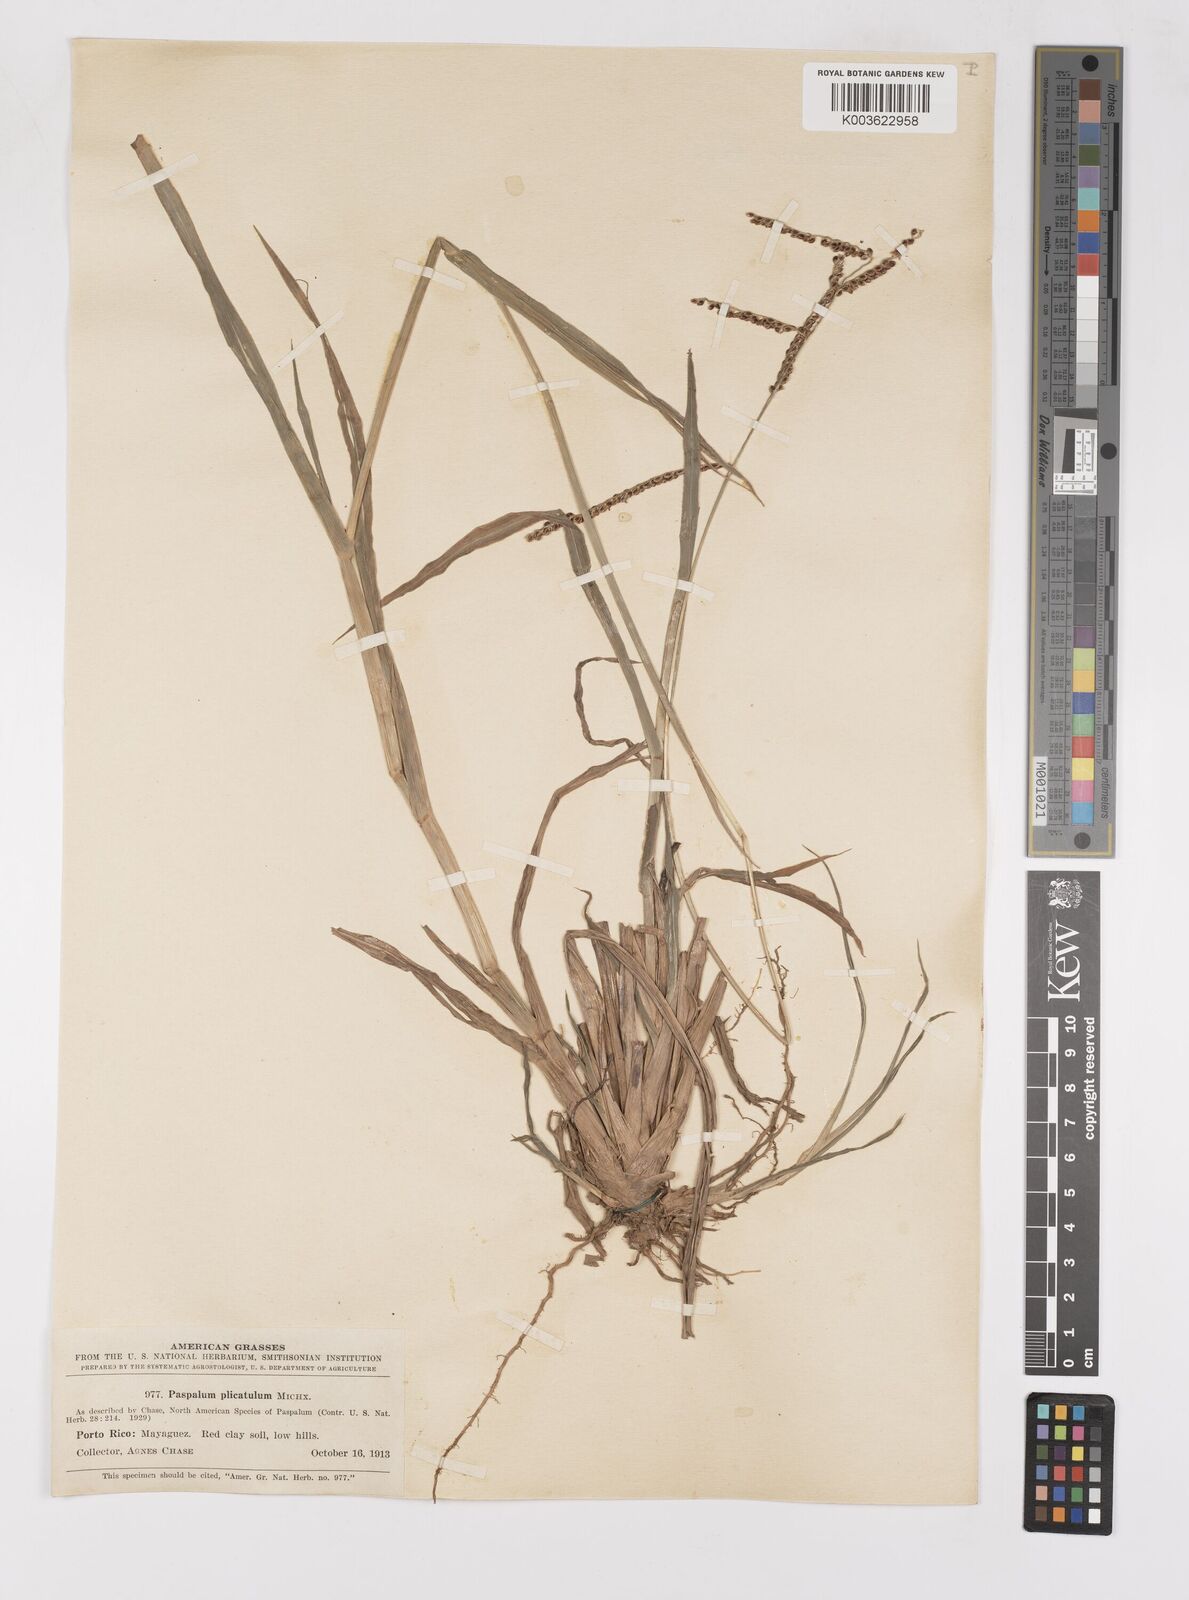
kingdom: Plantae
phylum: Tracheophyta
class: Liliopsida
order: Poales
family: Poaceae
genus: Paspalum
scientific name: Paspalum plicatulum
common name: Top paspalum
